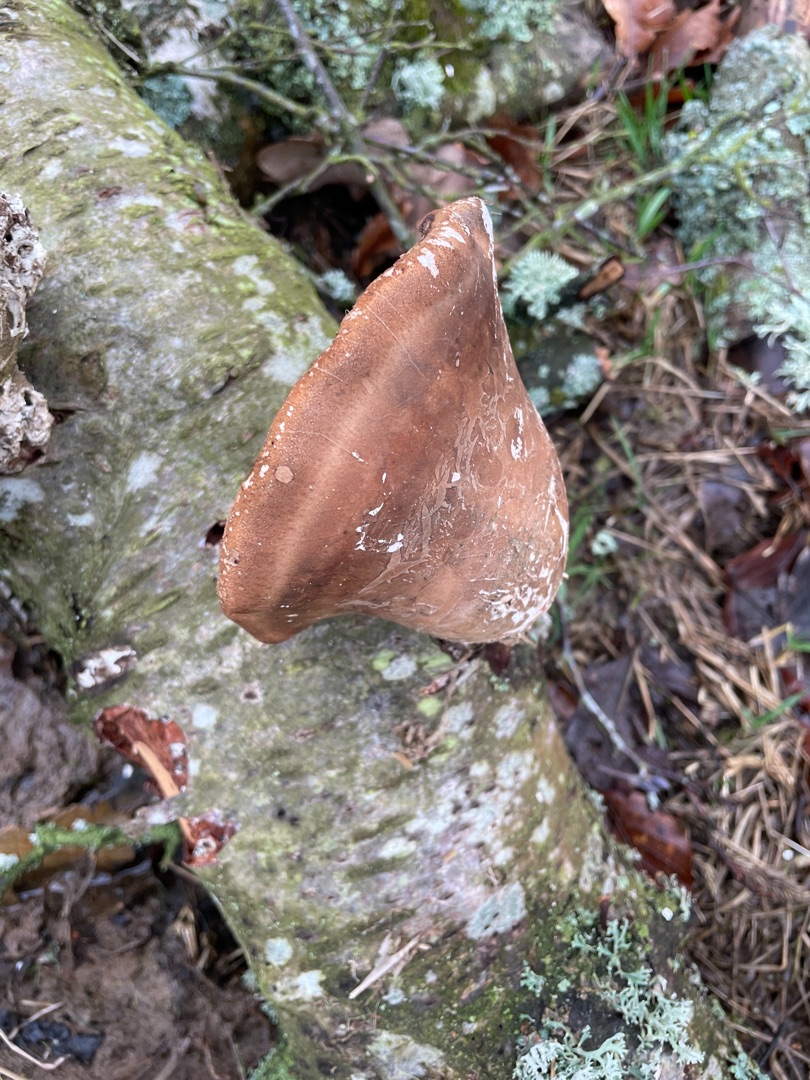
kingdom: Fungi
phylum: Basidiomycota
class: Agaricomycetes
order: Polyporales
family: Fomitopsidaceae
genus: Fomitopsis
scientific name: Fomitopsis betulina
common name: Birkeporesvamp
